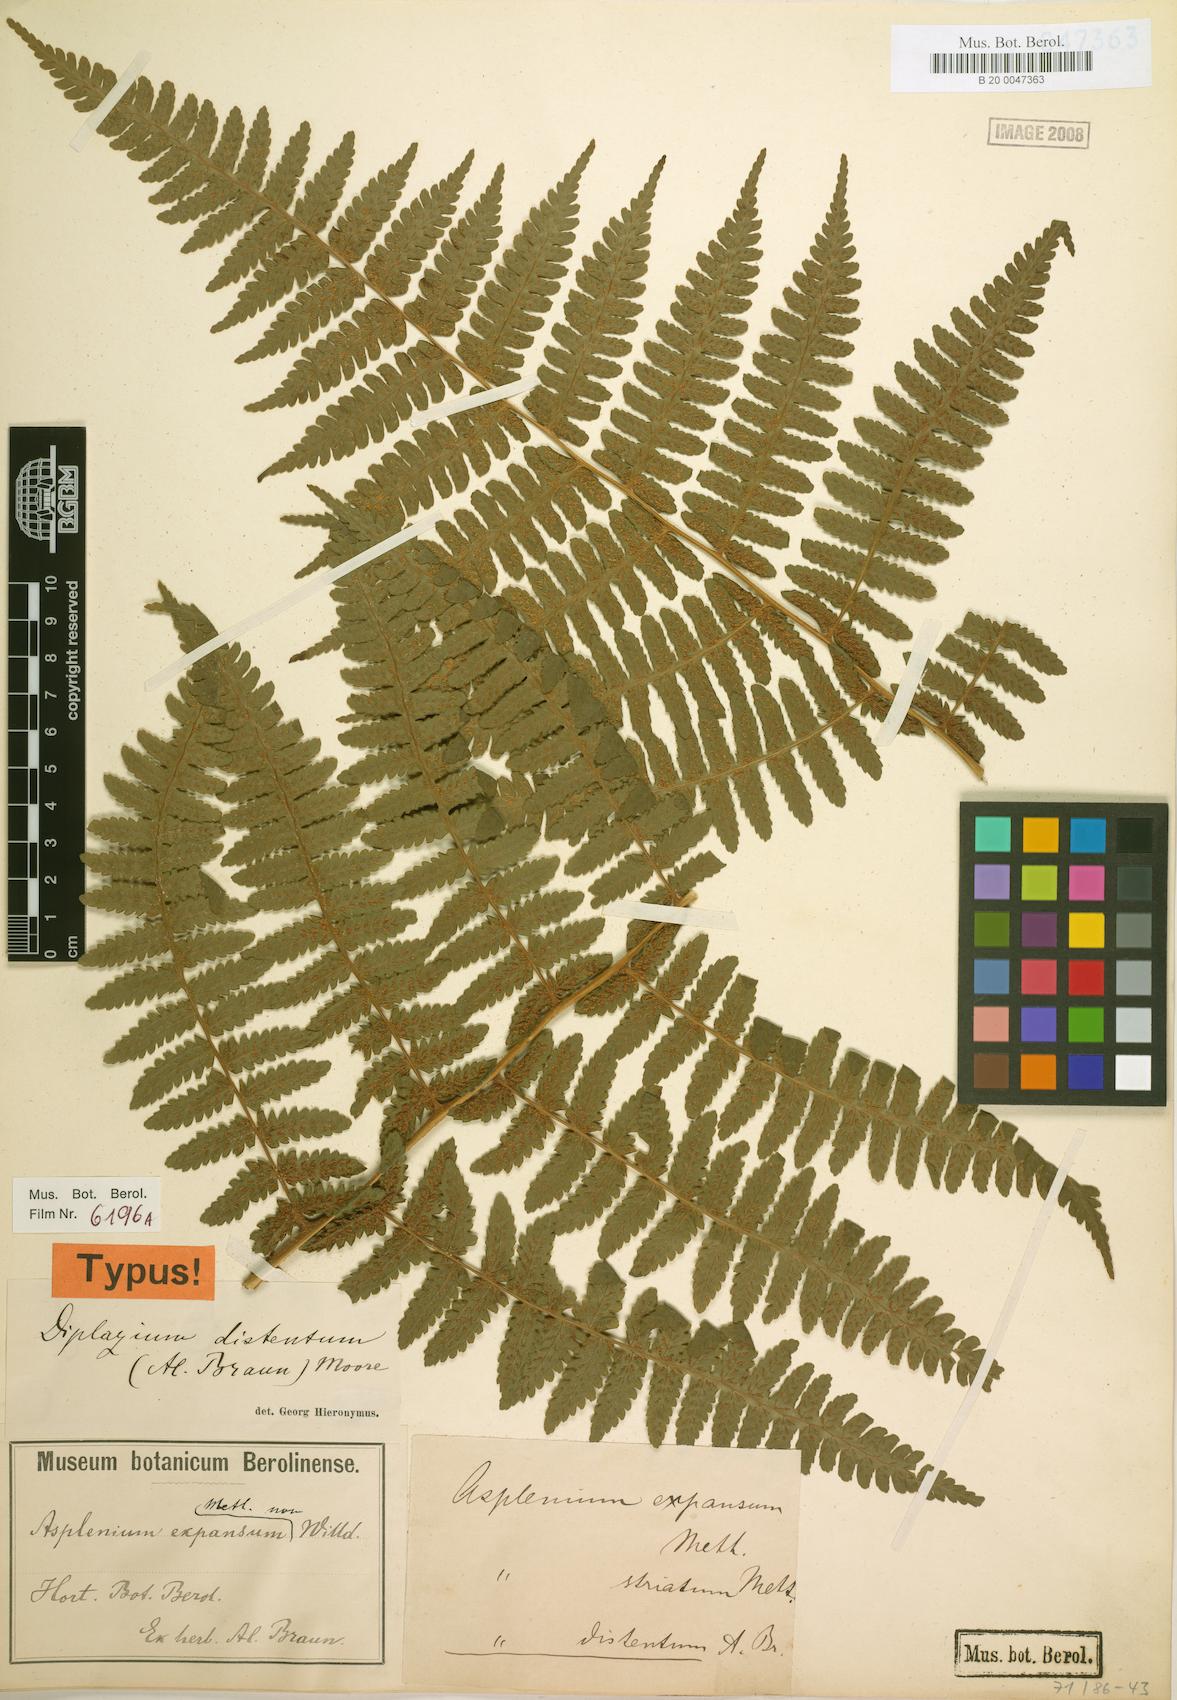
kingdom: Plantae
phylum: Tracheophyta
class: Polypodiopsida
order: Polypodiales
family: Athyriaceae
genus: Diplazium
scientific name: Diplazium expansum
